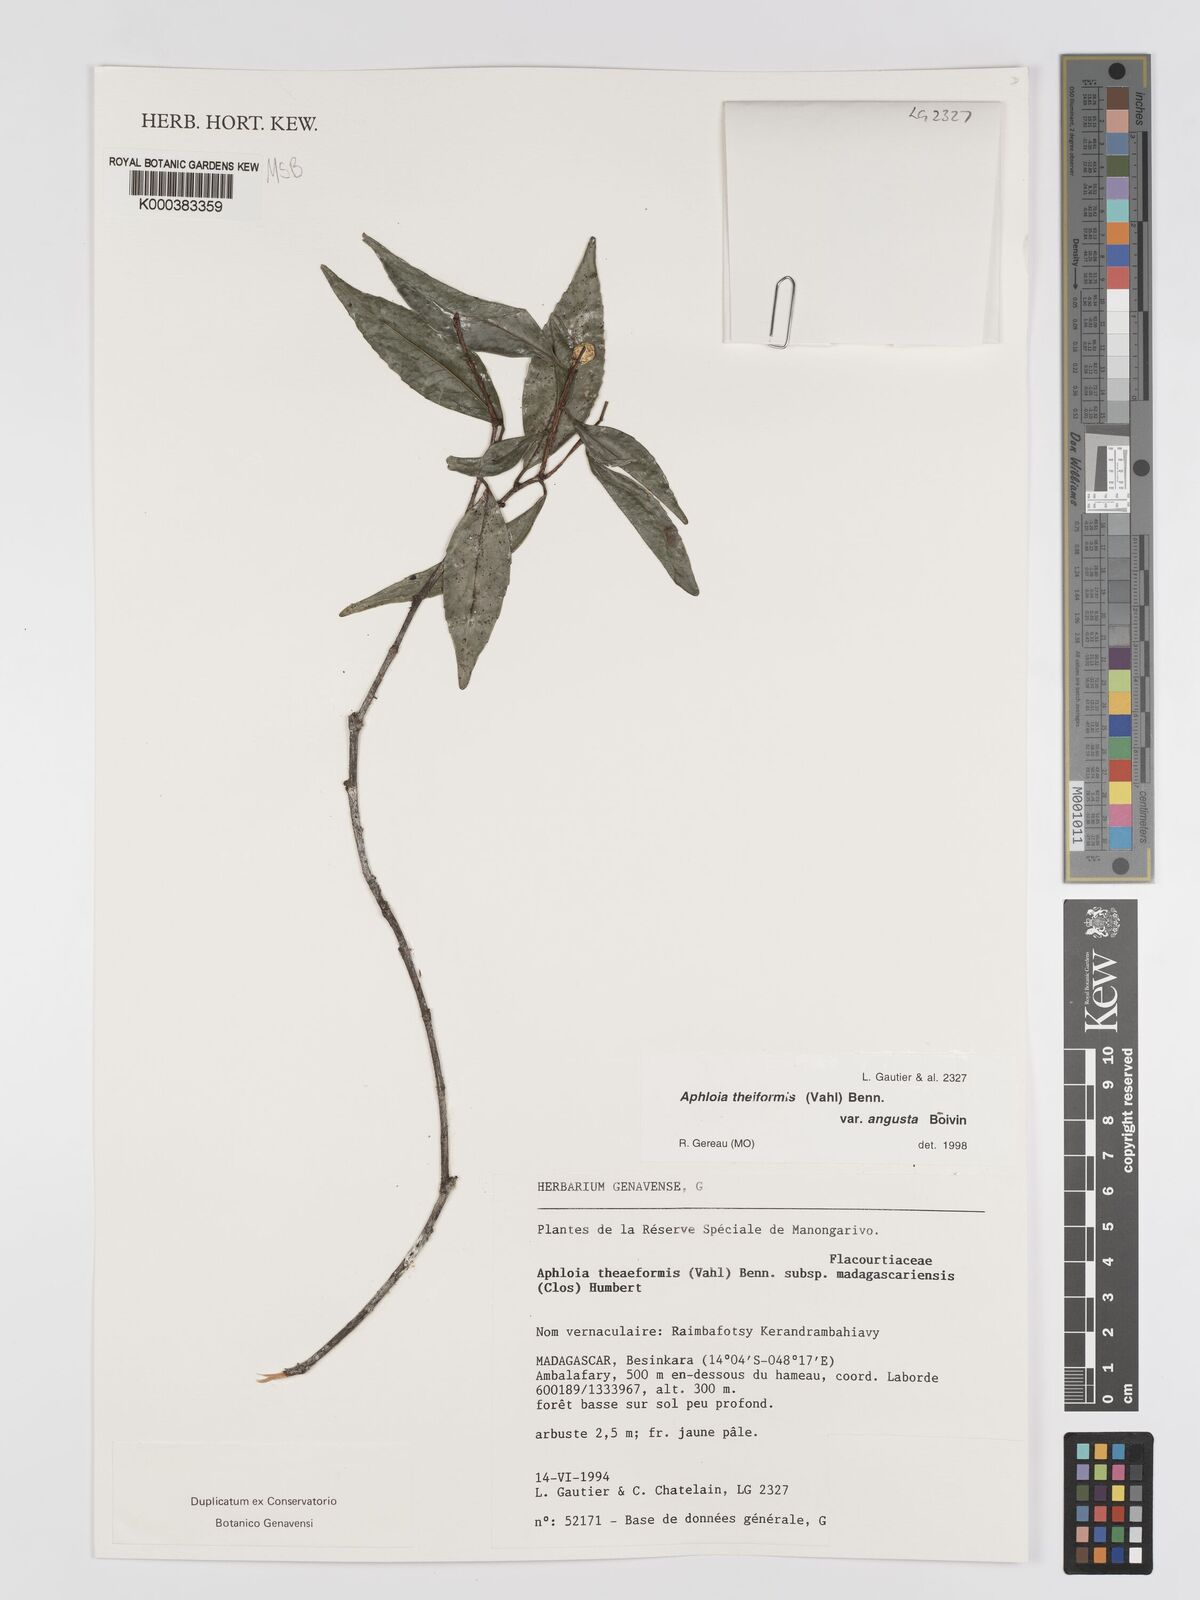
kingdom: Plantae
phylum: Tracheophyta
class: Magnoliopsida
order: Crossosomatales
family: Aphloiaceae
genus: Aphloia
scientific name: Aphloia theiformis
